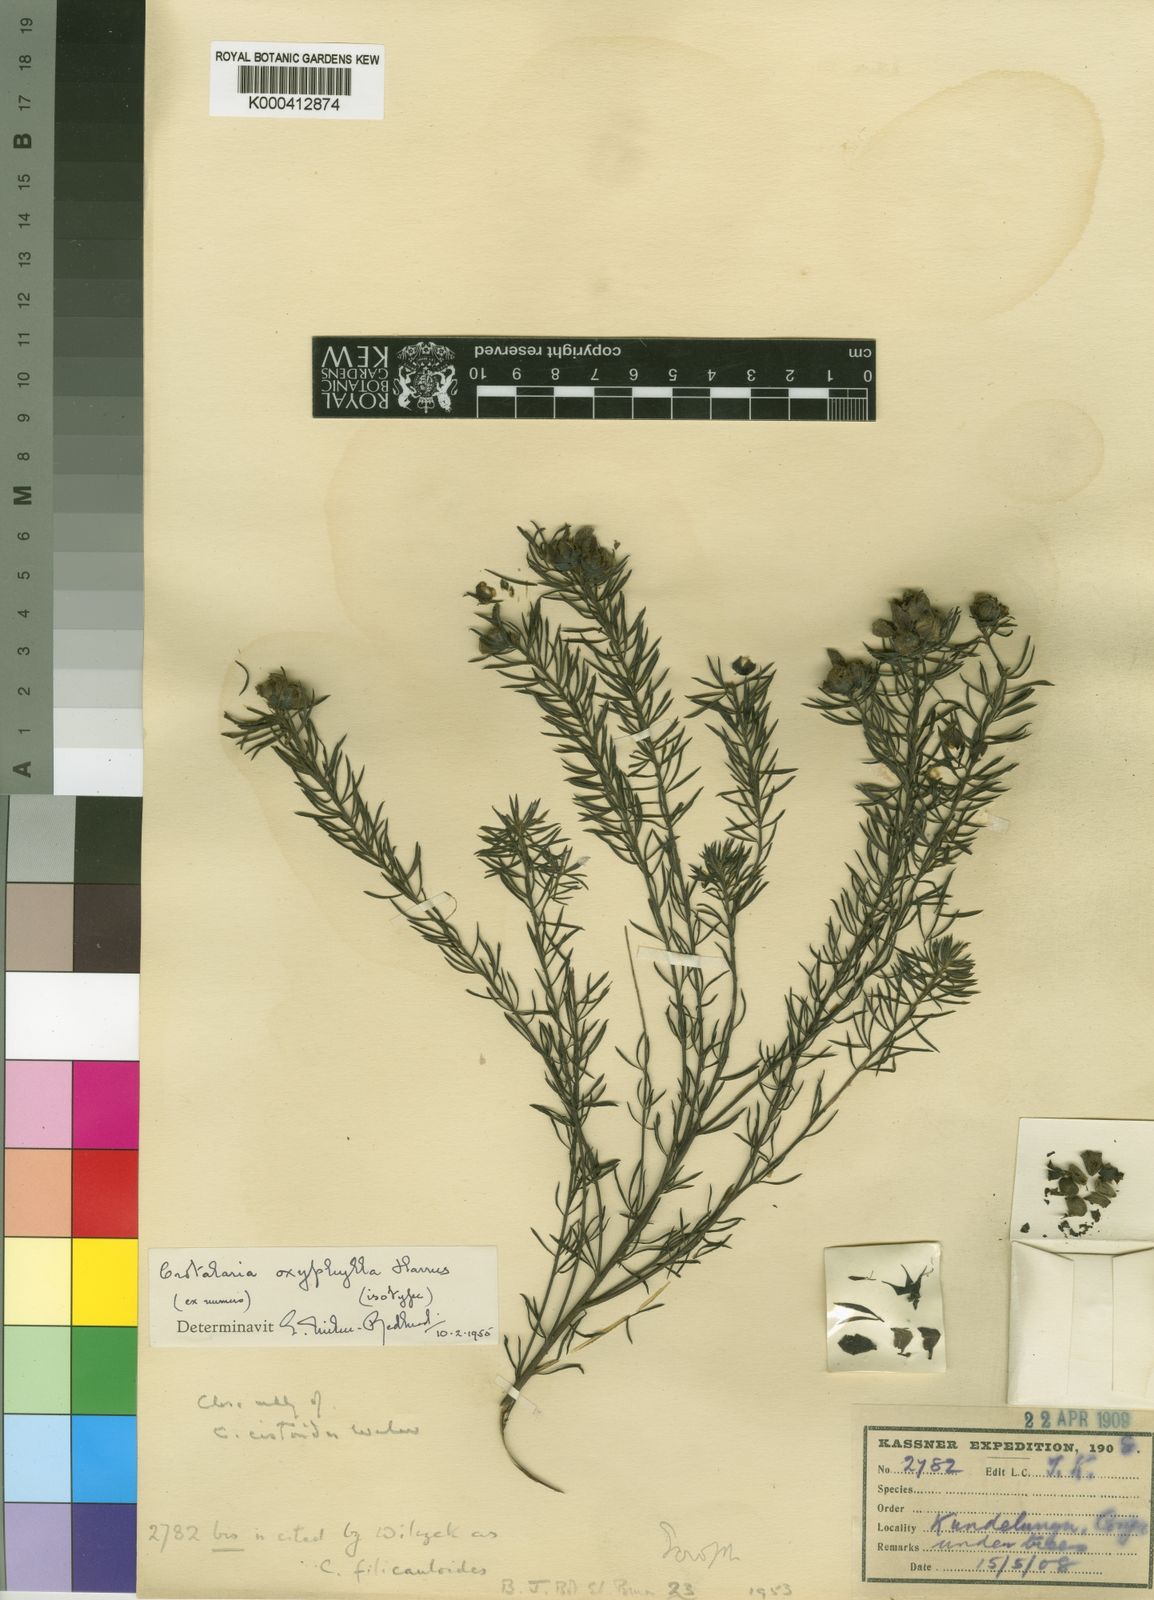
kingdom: Plantae
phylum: Tracheophyta
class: Magnoliopsida
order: Fabales
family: Fabaceae
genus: Crotalaria
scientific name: Crotalaria oxyphylla
